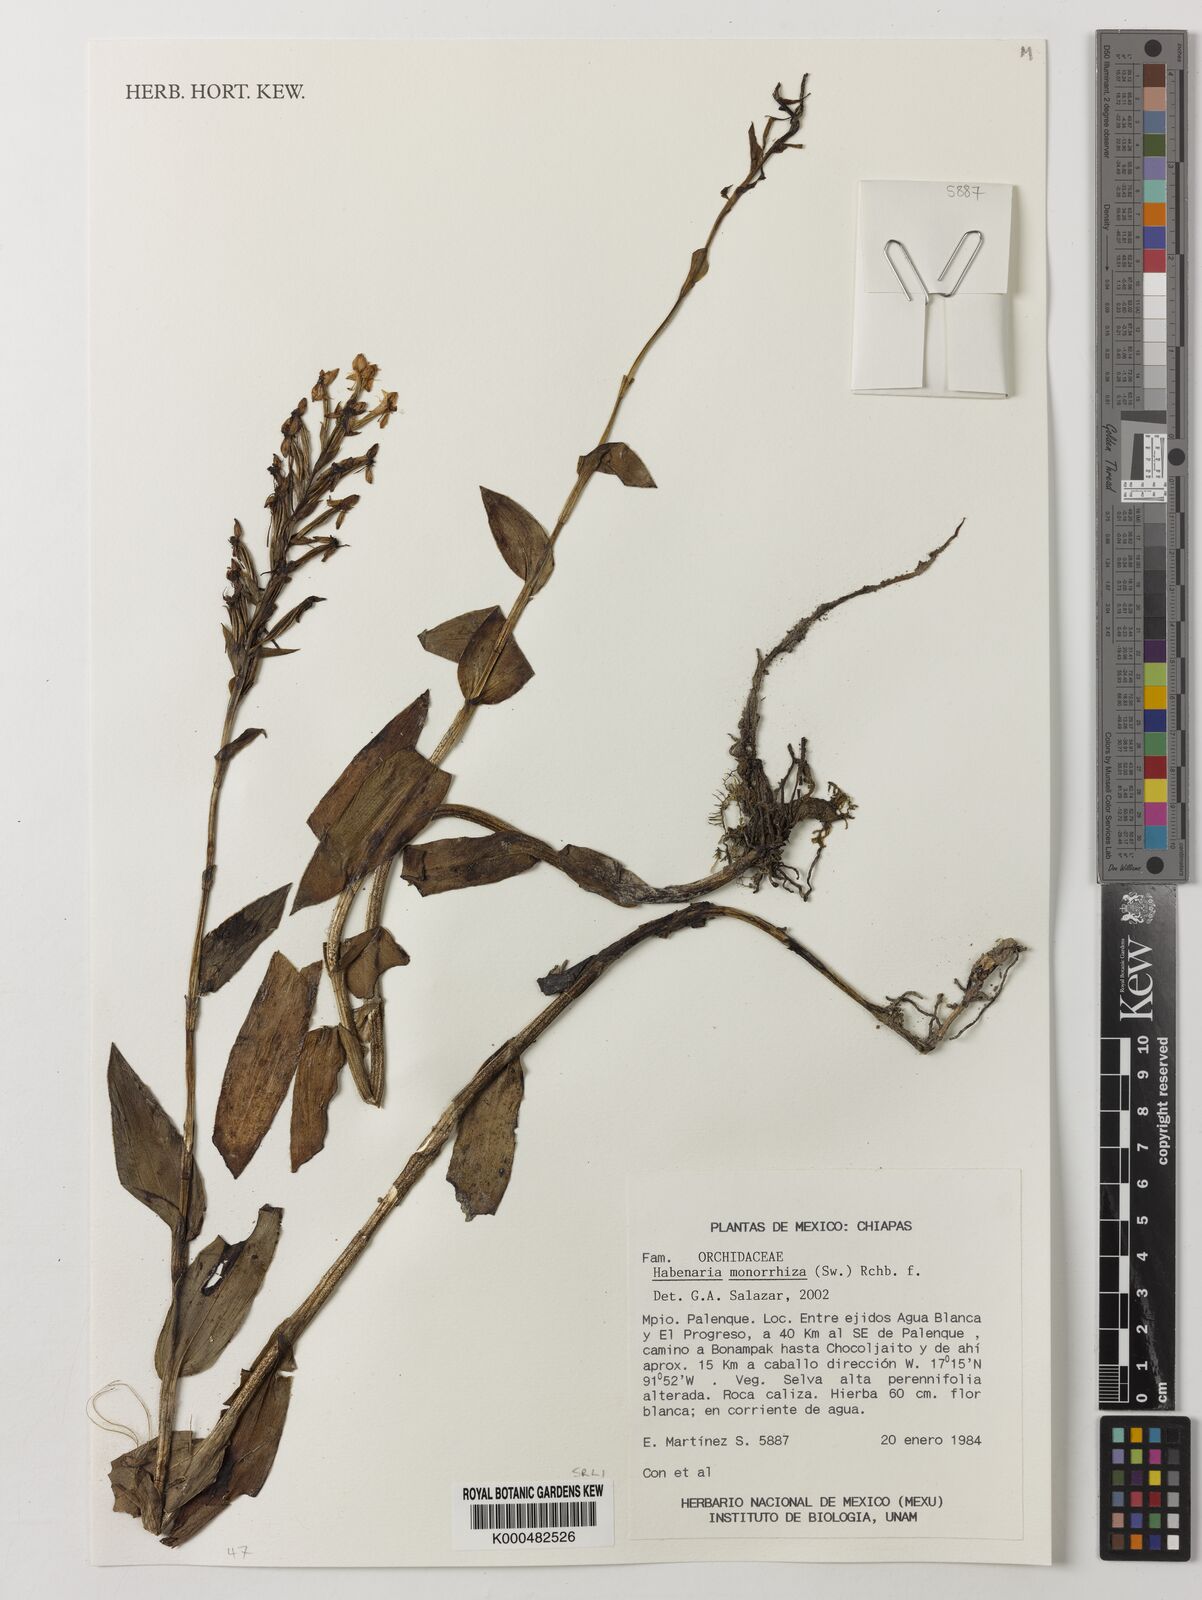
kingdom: Plantae
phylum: Tracheophyta
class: Liliopsida
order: Asparagales
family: Orchidaceae
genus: Habenaria
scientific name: Habenaria monorrhiza
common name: Tropical bog orchid
